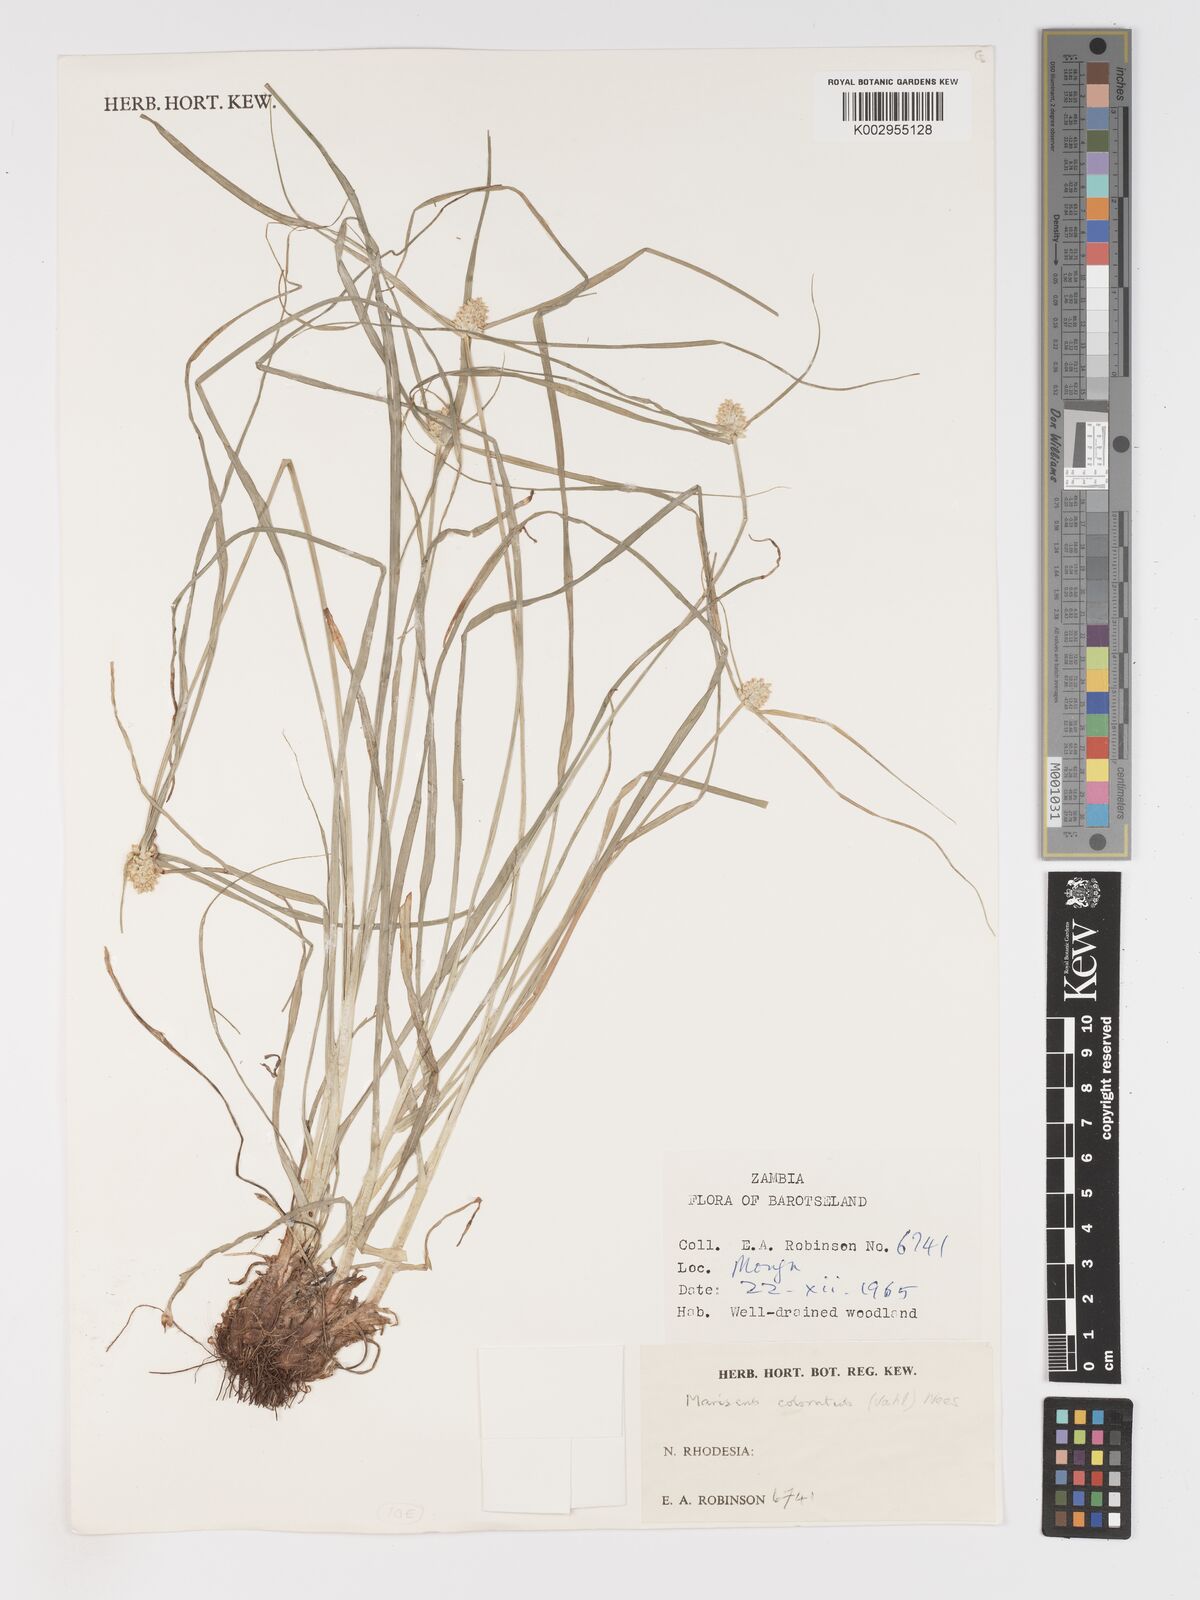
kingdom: Plantae
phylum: Tracheophyta
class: Liliopsida
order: Poales
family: Cyperaceae
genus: Cyperus
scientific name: Cyperus dubius
